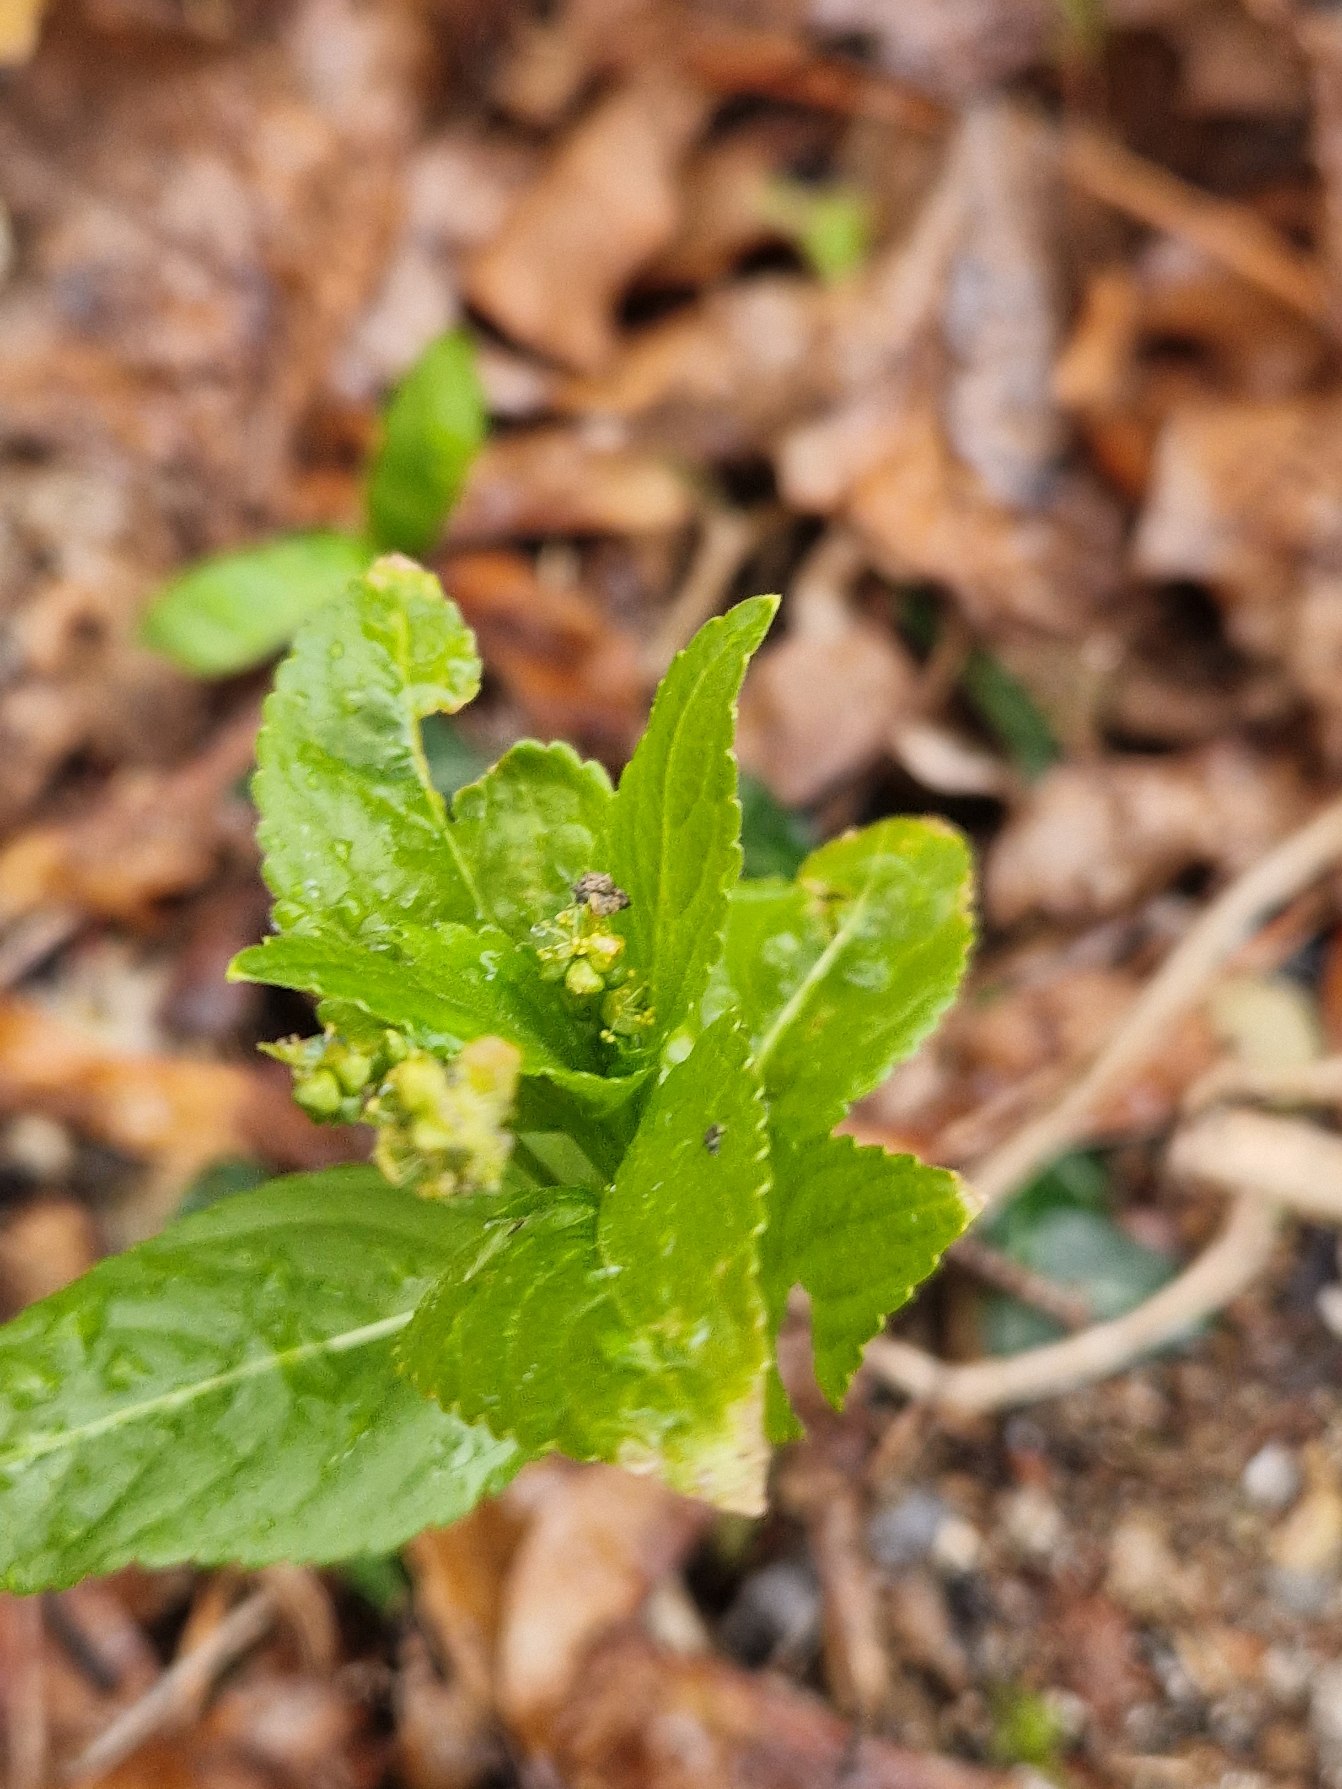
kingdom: Plantae
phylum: Tracheophyta
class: Magnoliopsida
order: Malpighiales
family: Euphorbiaceae
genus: Mercurialis
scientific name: Mercurialis perennis
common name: Almindelig bingelurt
